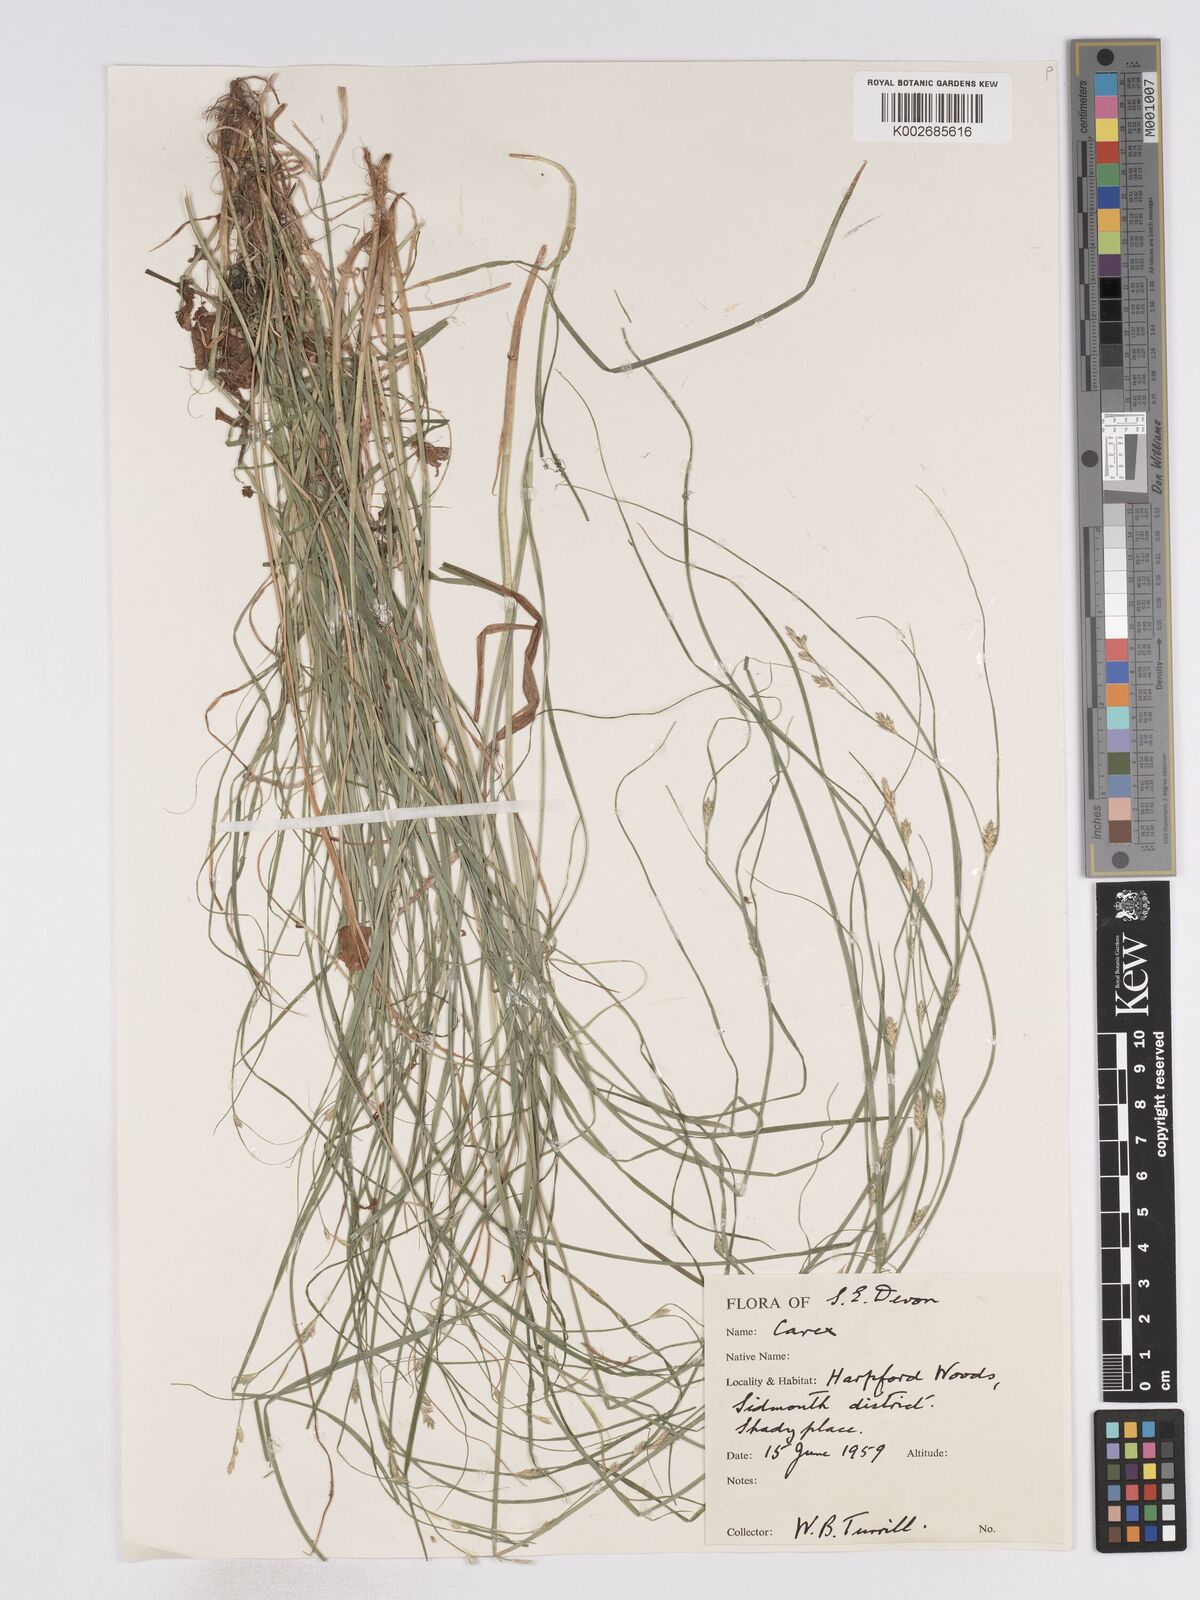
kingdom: Plantae
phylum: Tracheophyta
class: Liliopsida
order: Poales
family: Cyperaceae
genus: Carex
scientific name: Carex remota
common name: Remote sedge
